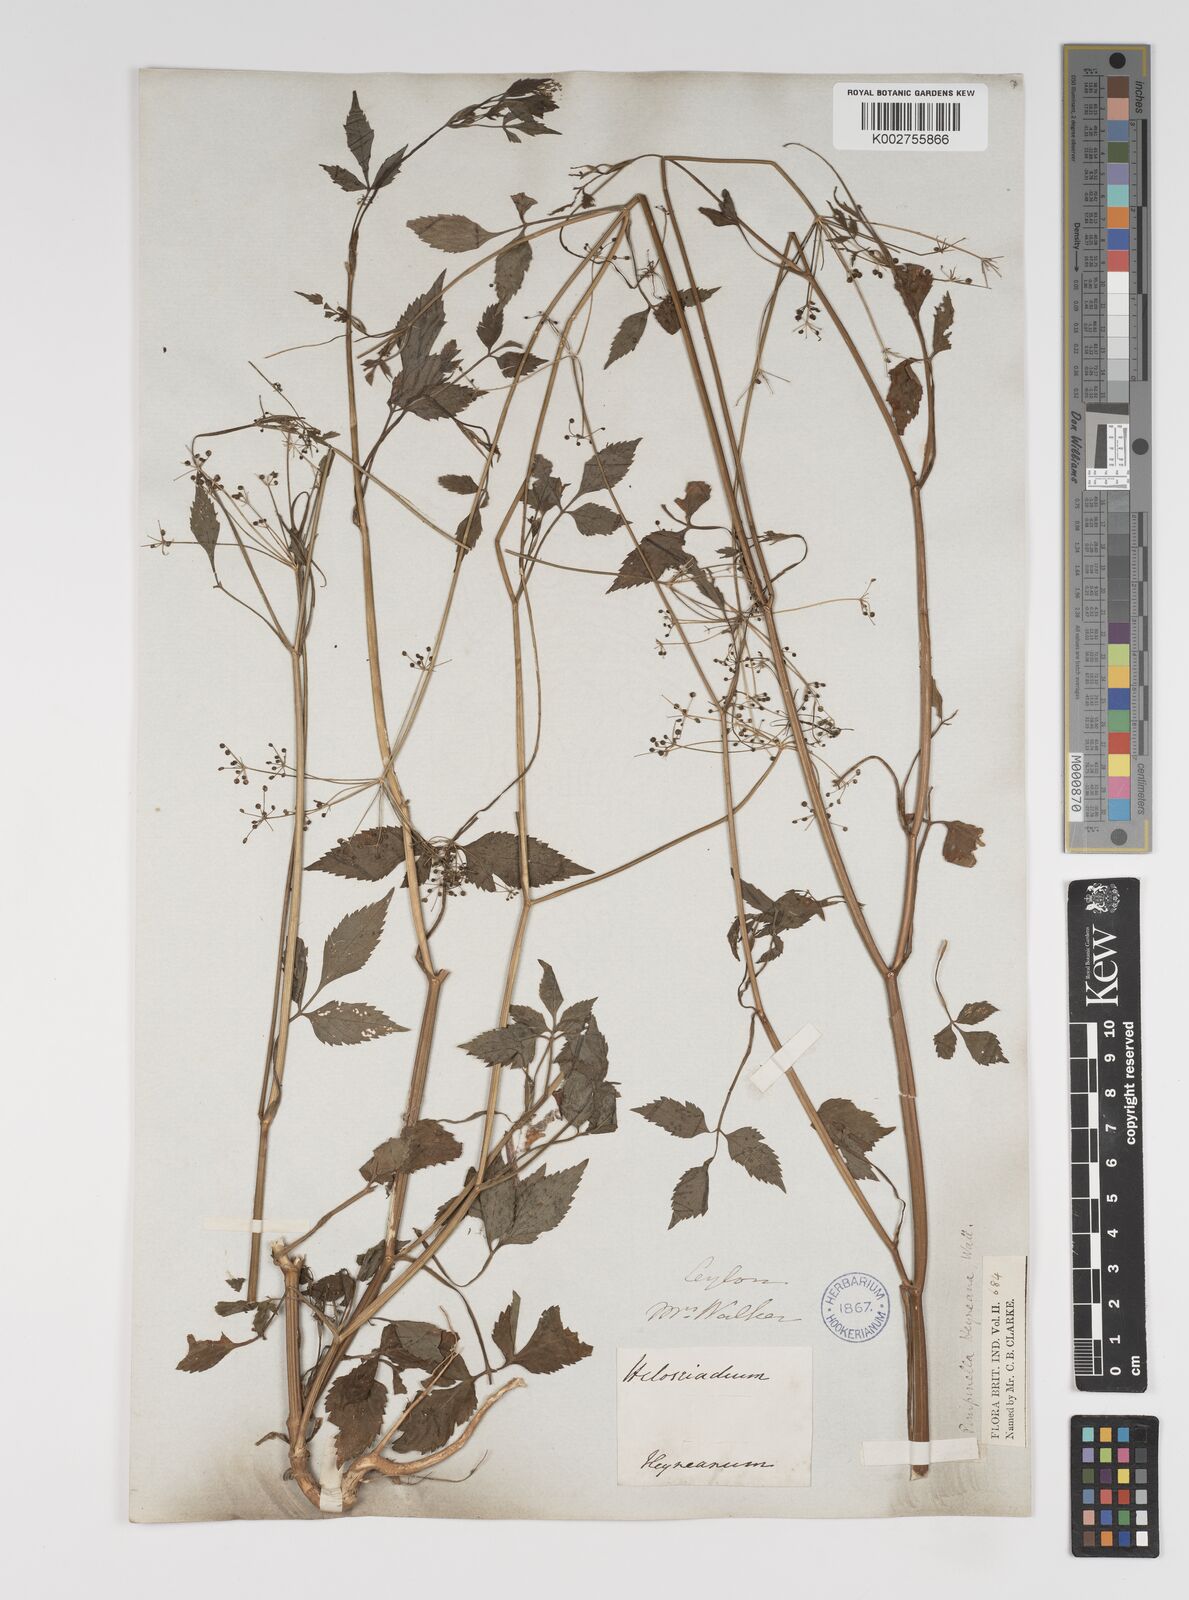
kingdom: Plantae
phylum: Tracheophyta
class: Magnoliopsida
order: Apiales
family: Apiaceae
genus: Pimpinella
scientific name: Pimpinella heyneana
